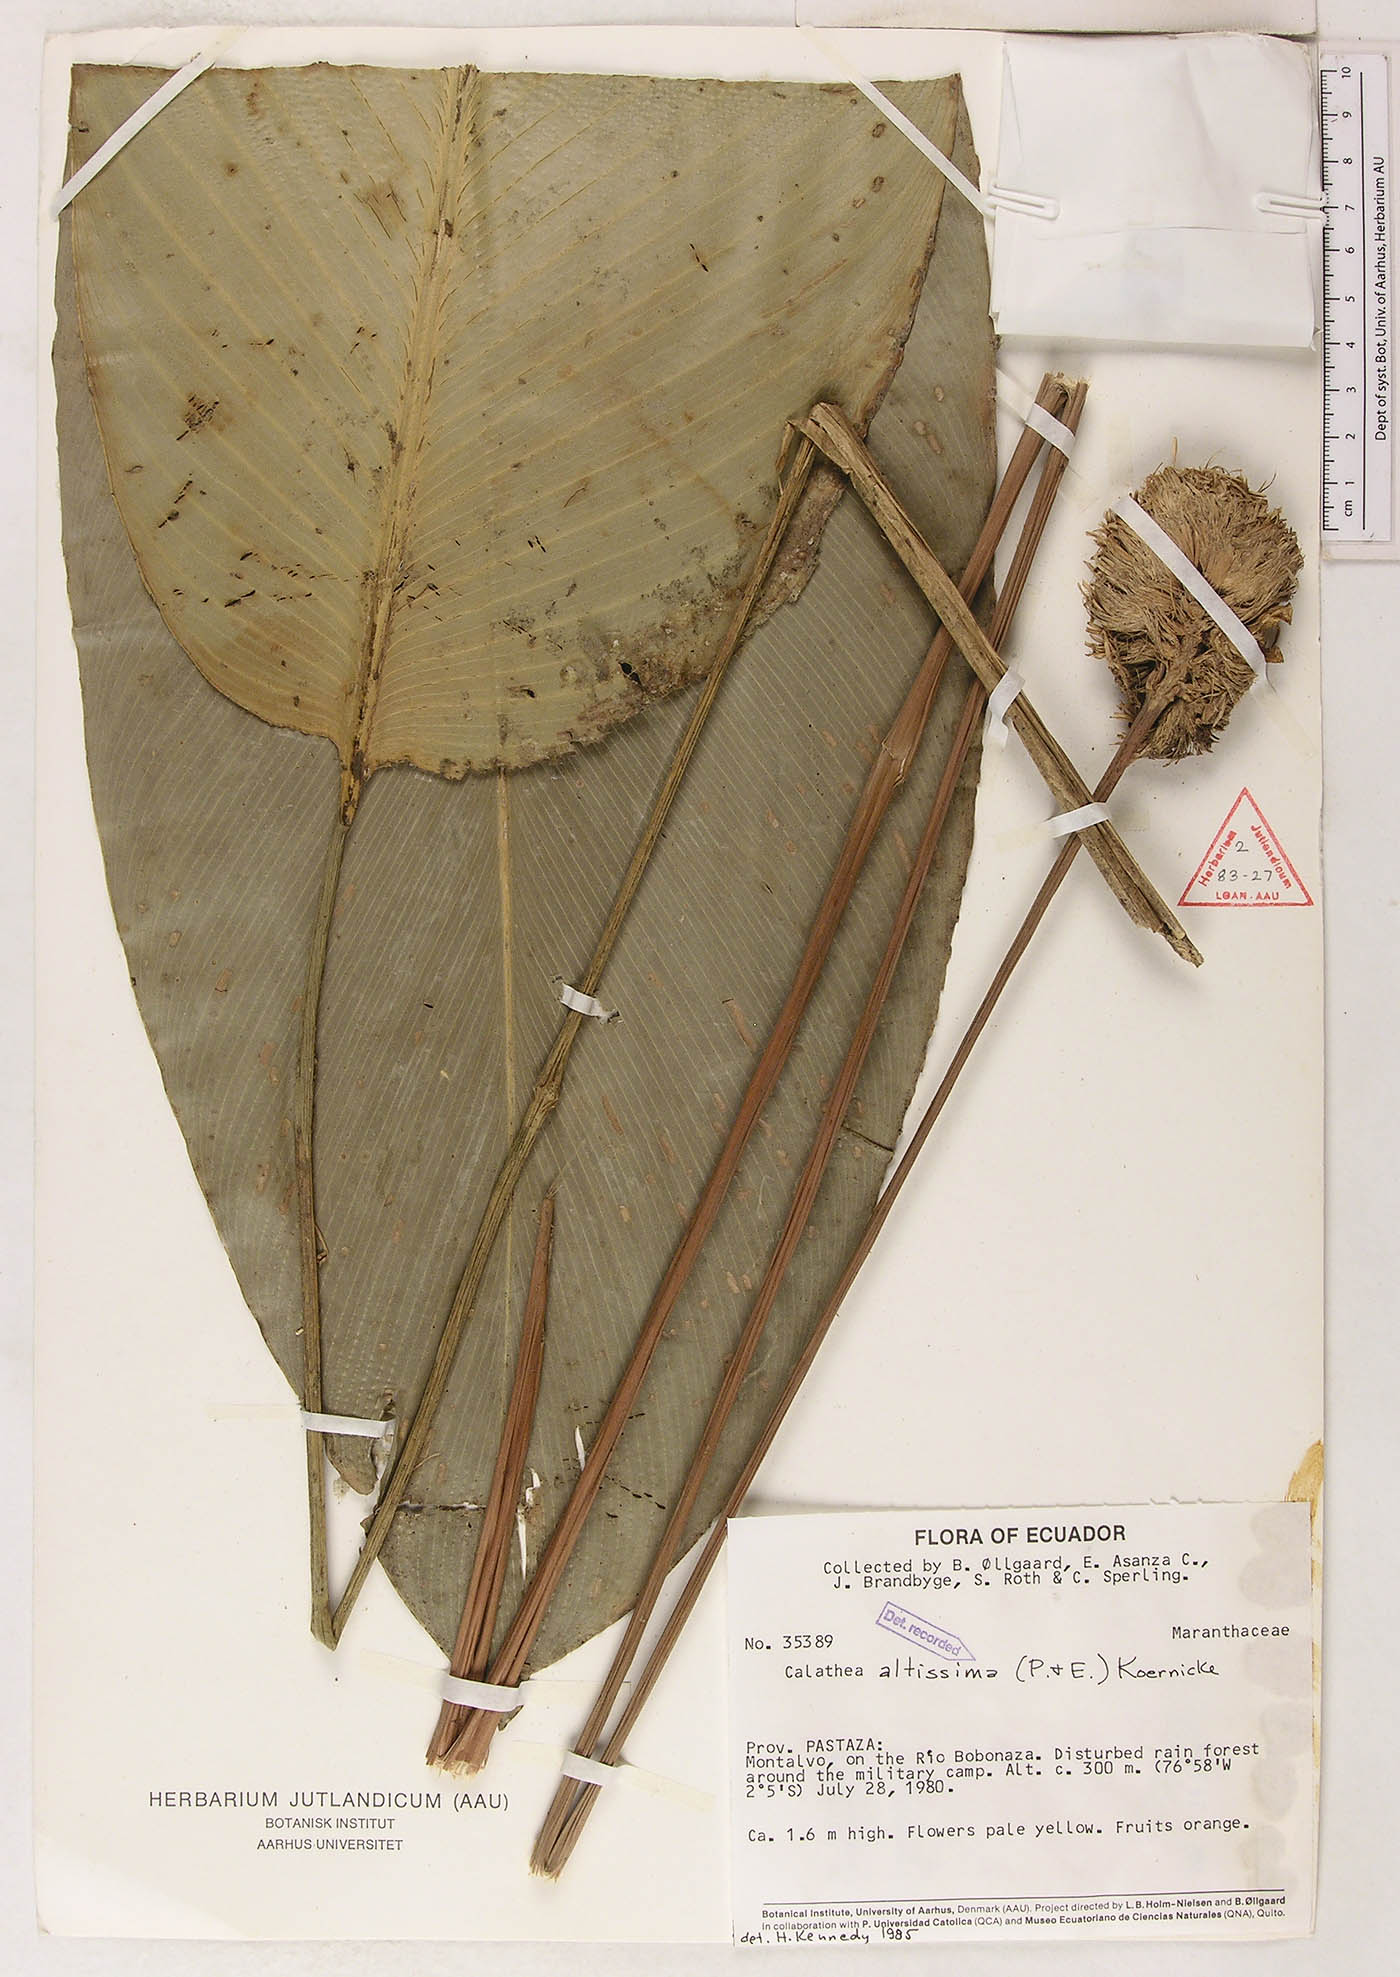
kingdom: Plantae
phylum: Tracheophyta
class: Liliopsida
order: Zingiberales
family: Marantaceae
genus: Goeppertia
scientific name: Goeppertia altissima
